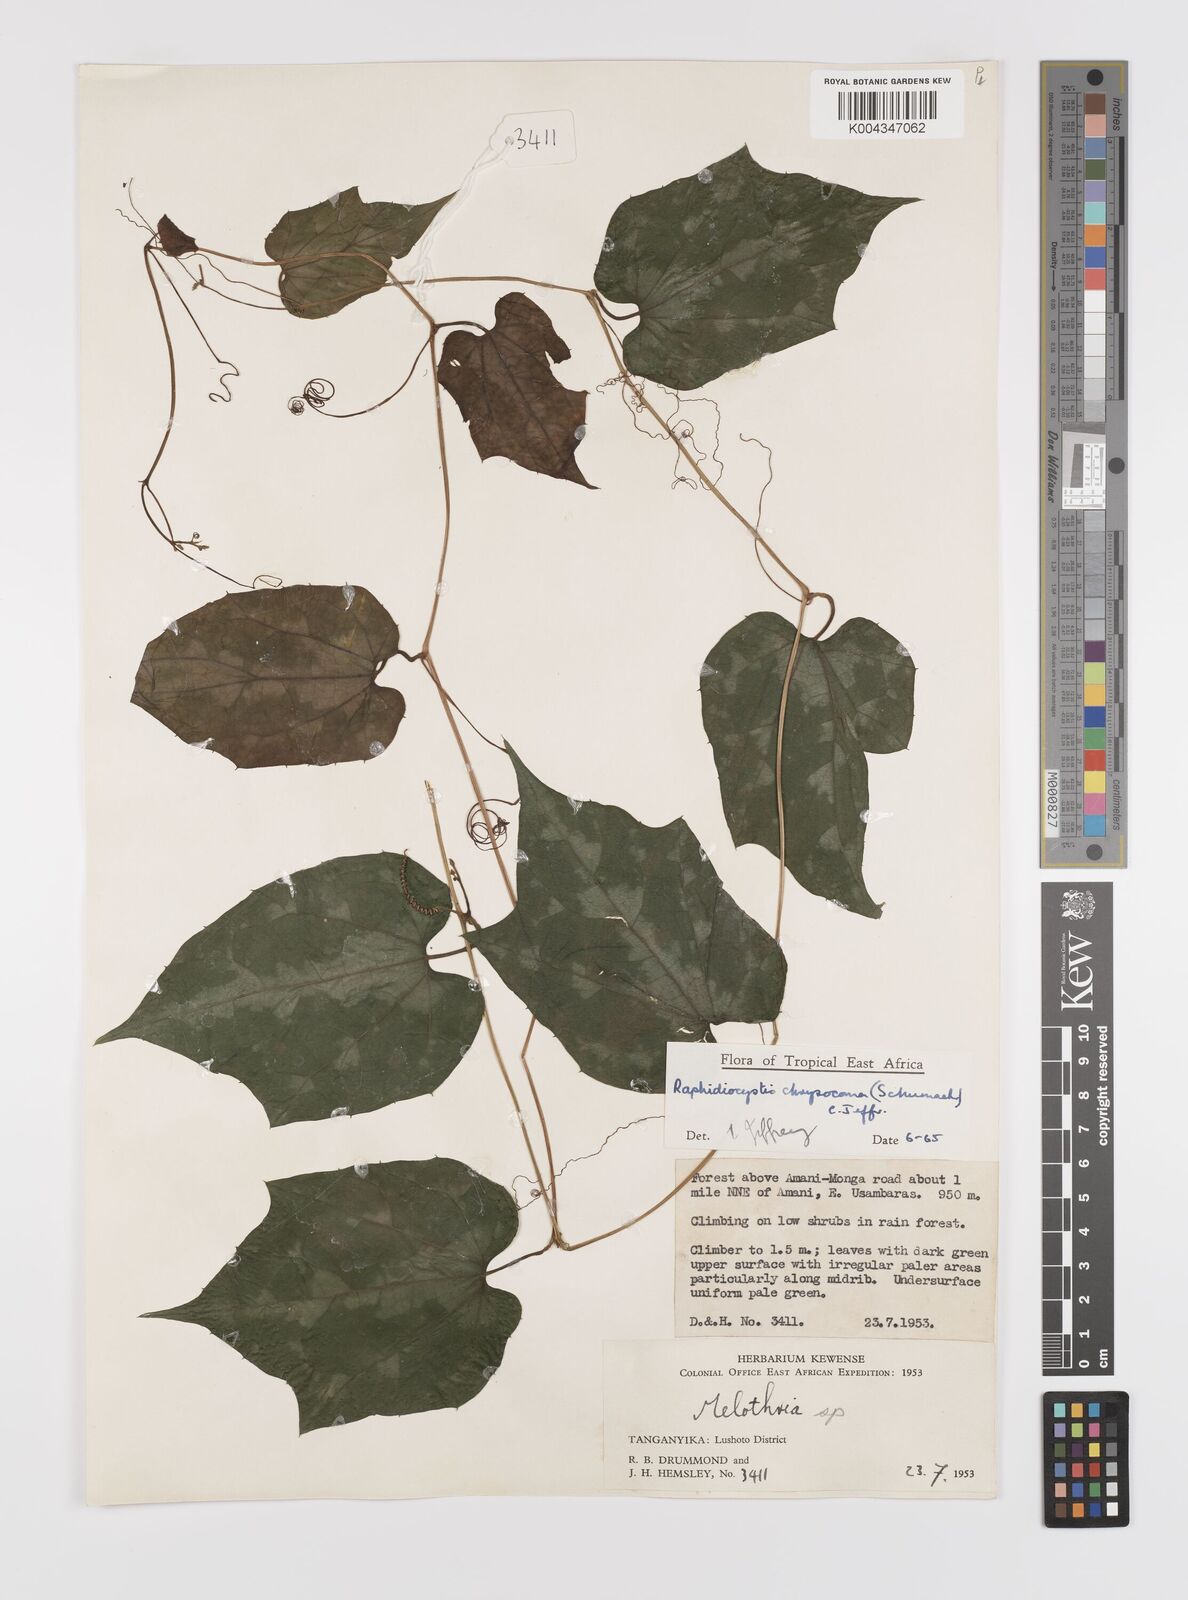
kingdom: Plantae
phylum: Tracheophyta
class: Magnoliopsida
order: Cucurbitales
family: Cucurbitaceae
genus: Raphidiocystis
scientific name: Raphidiocystis chrysocoma
